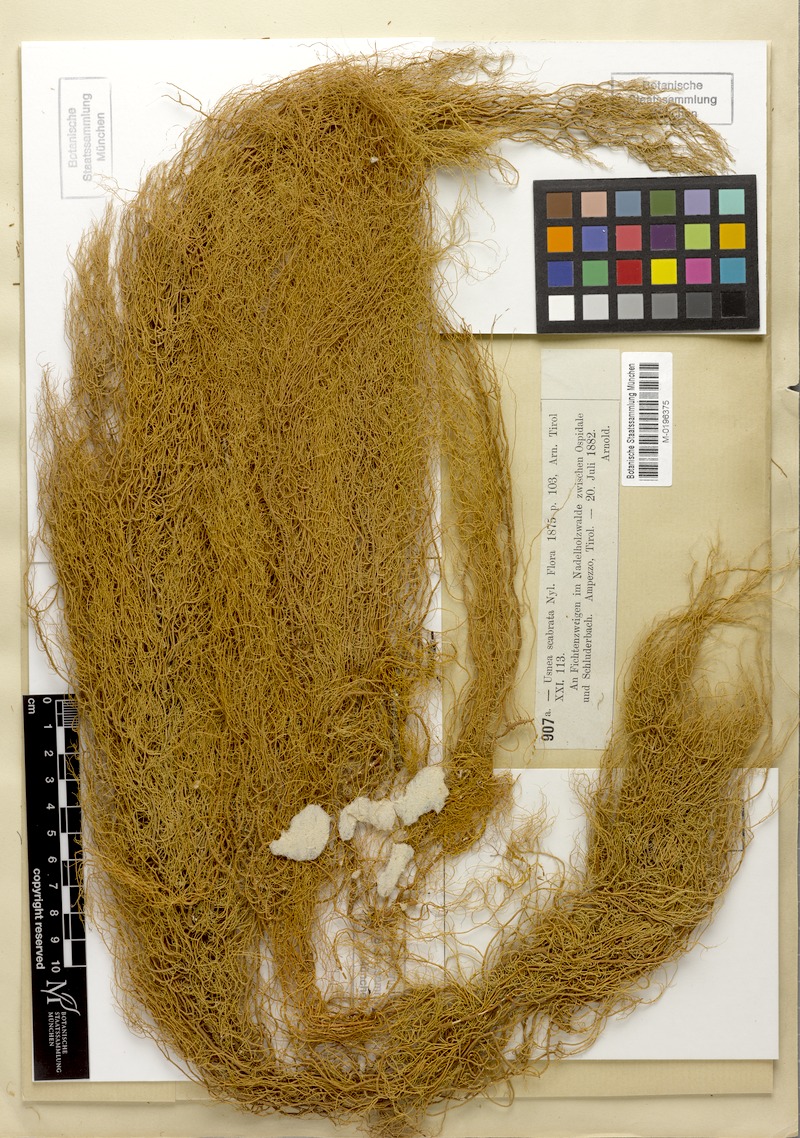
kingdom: Fungi
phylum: Ascomycota
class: Lecanoromycetes
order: Lecanorales
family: Parmeliaceae
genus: Usnea
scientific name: Usnea scabrata
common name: Straw beard lichen
